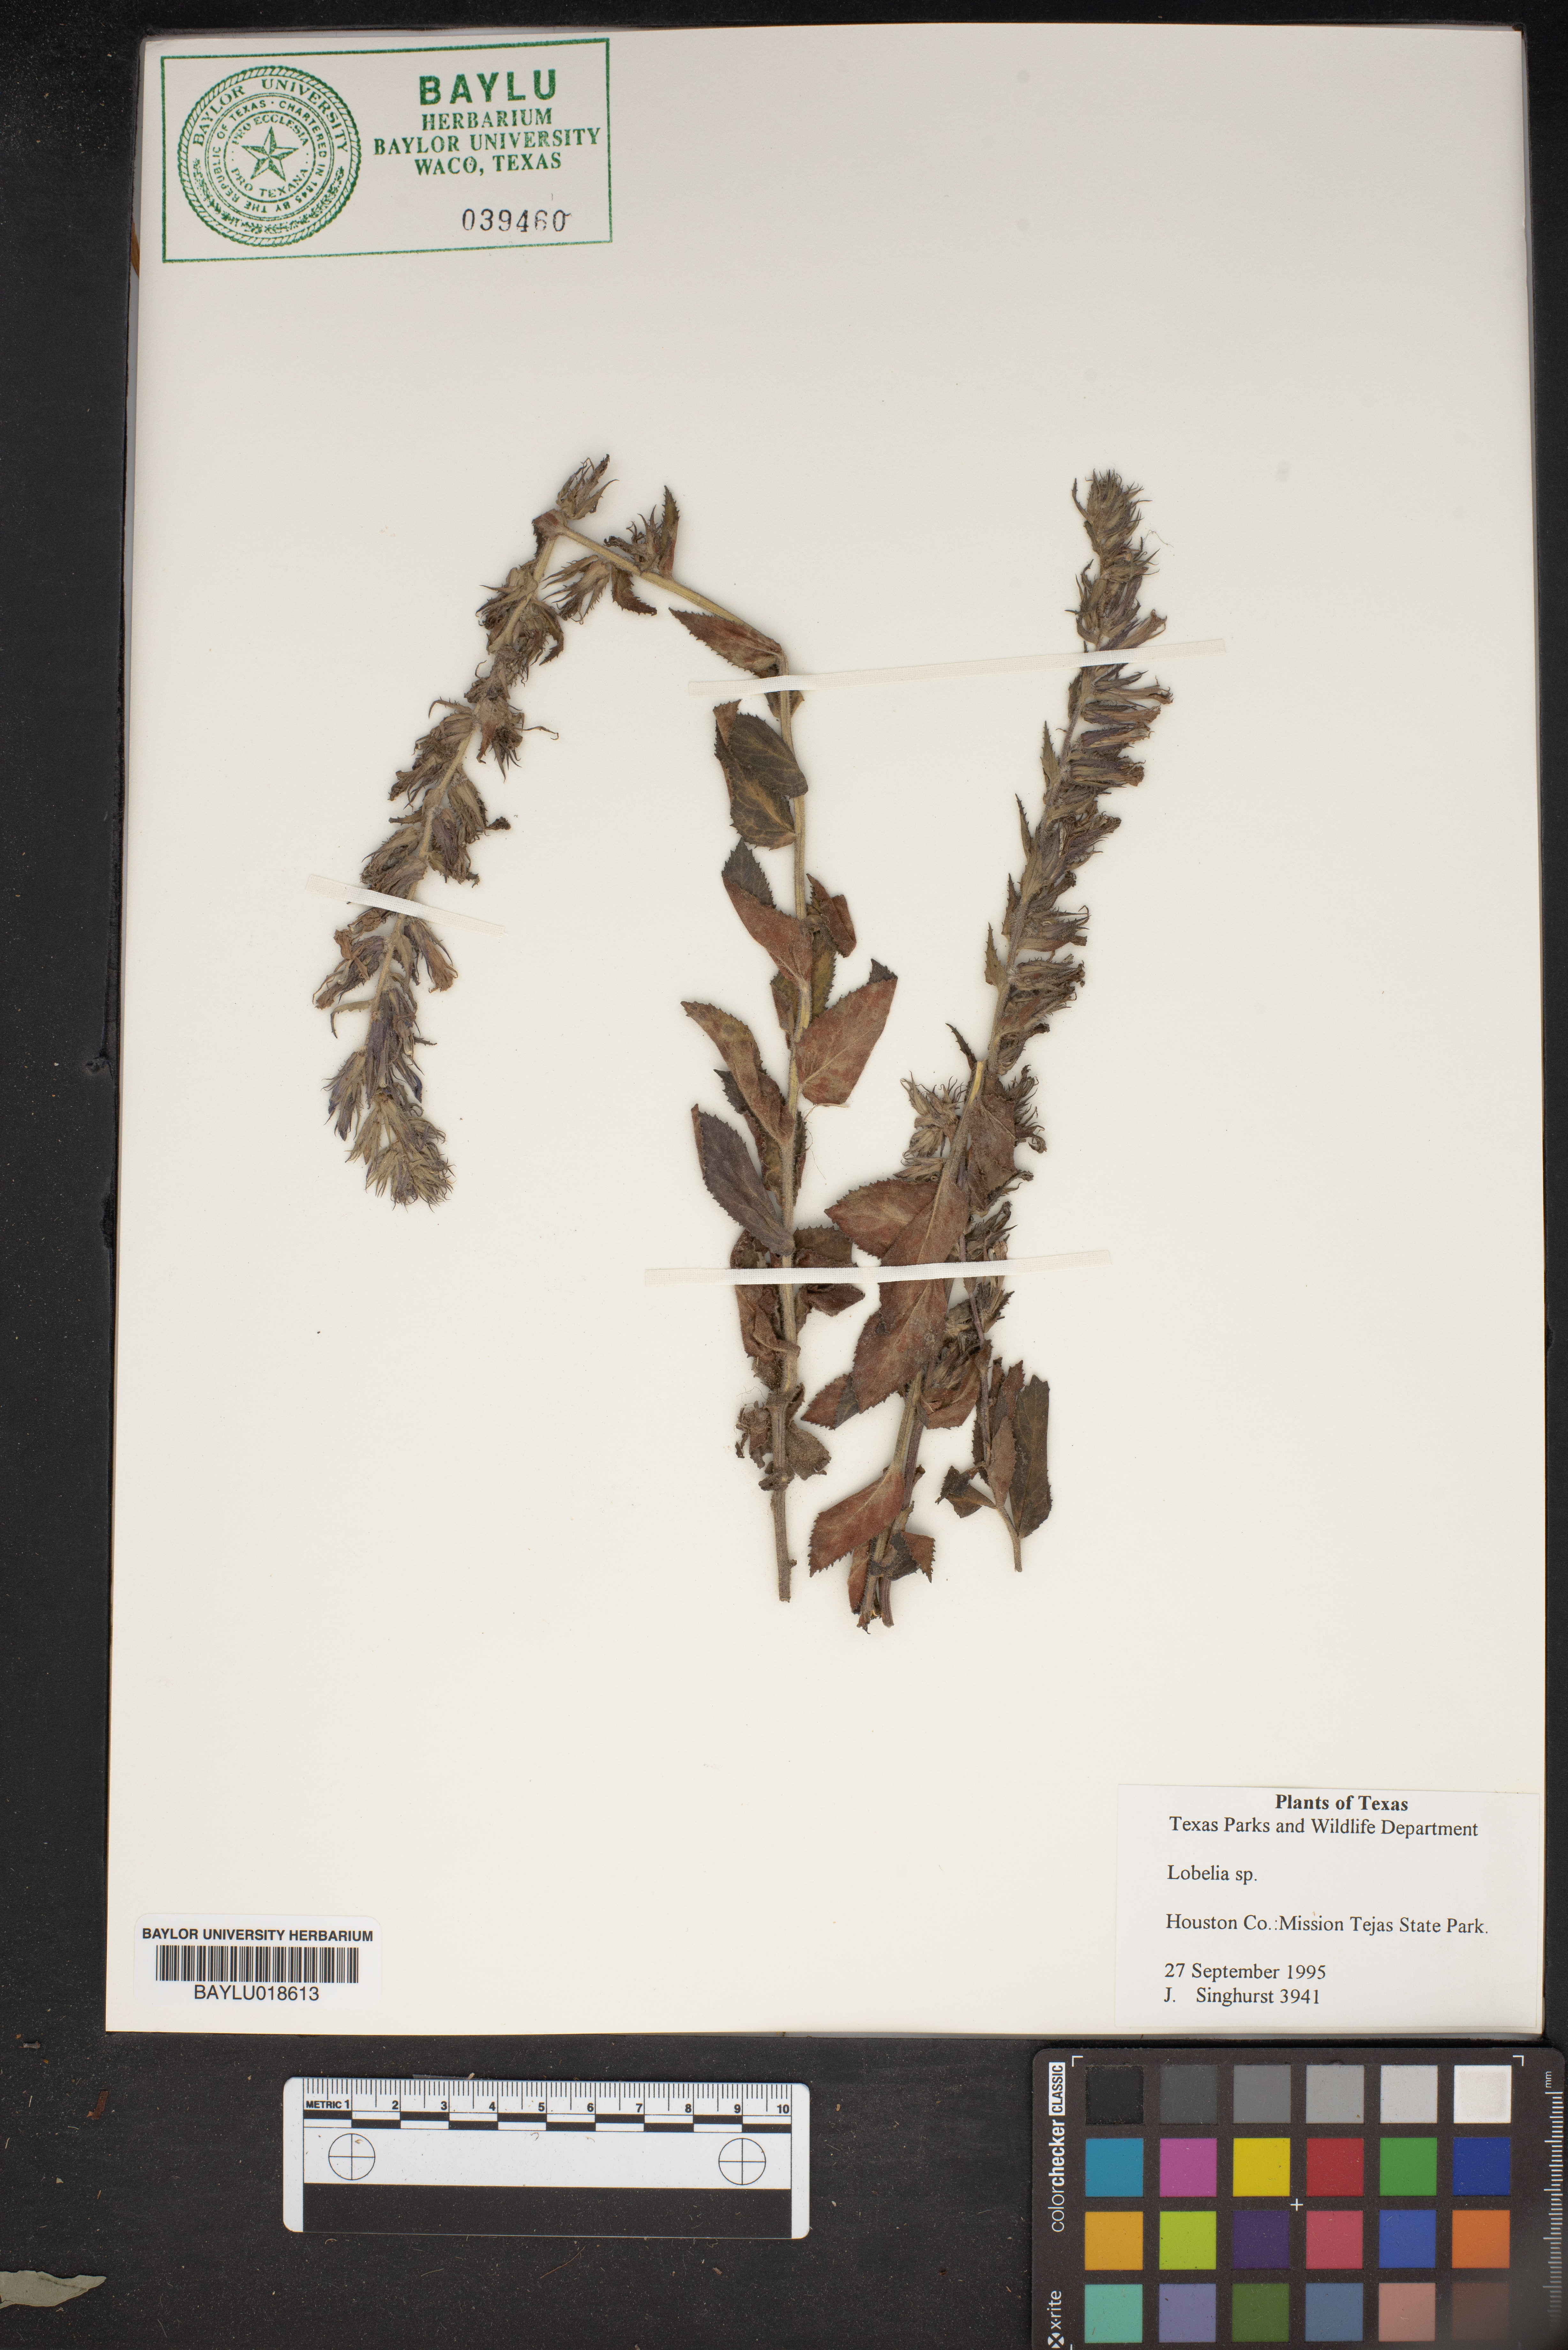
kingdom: Plantae
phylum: Tracheophyta
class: Magnoliopsida
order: Asterales
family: Campanulaceae
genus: Lobelia
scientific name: Lobelia
